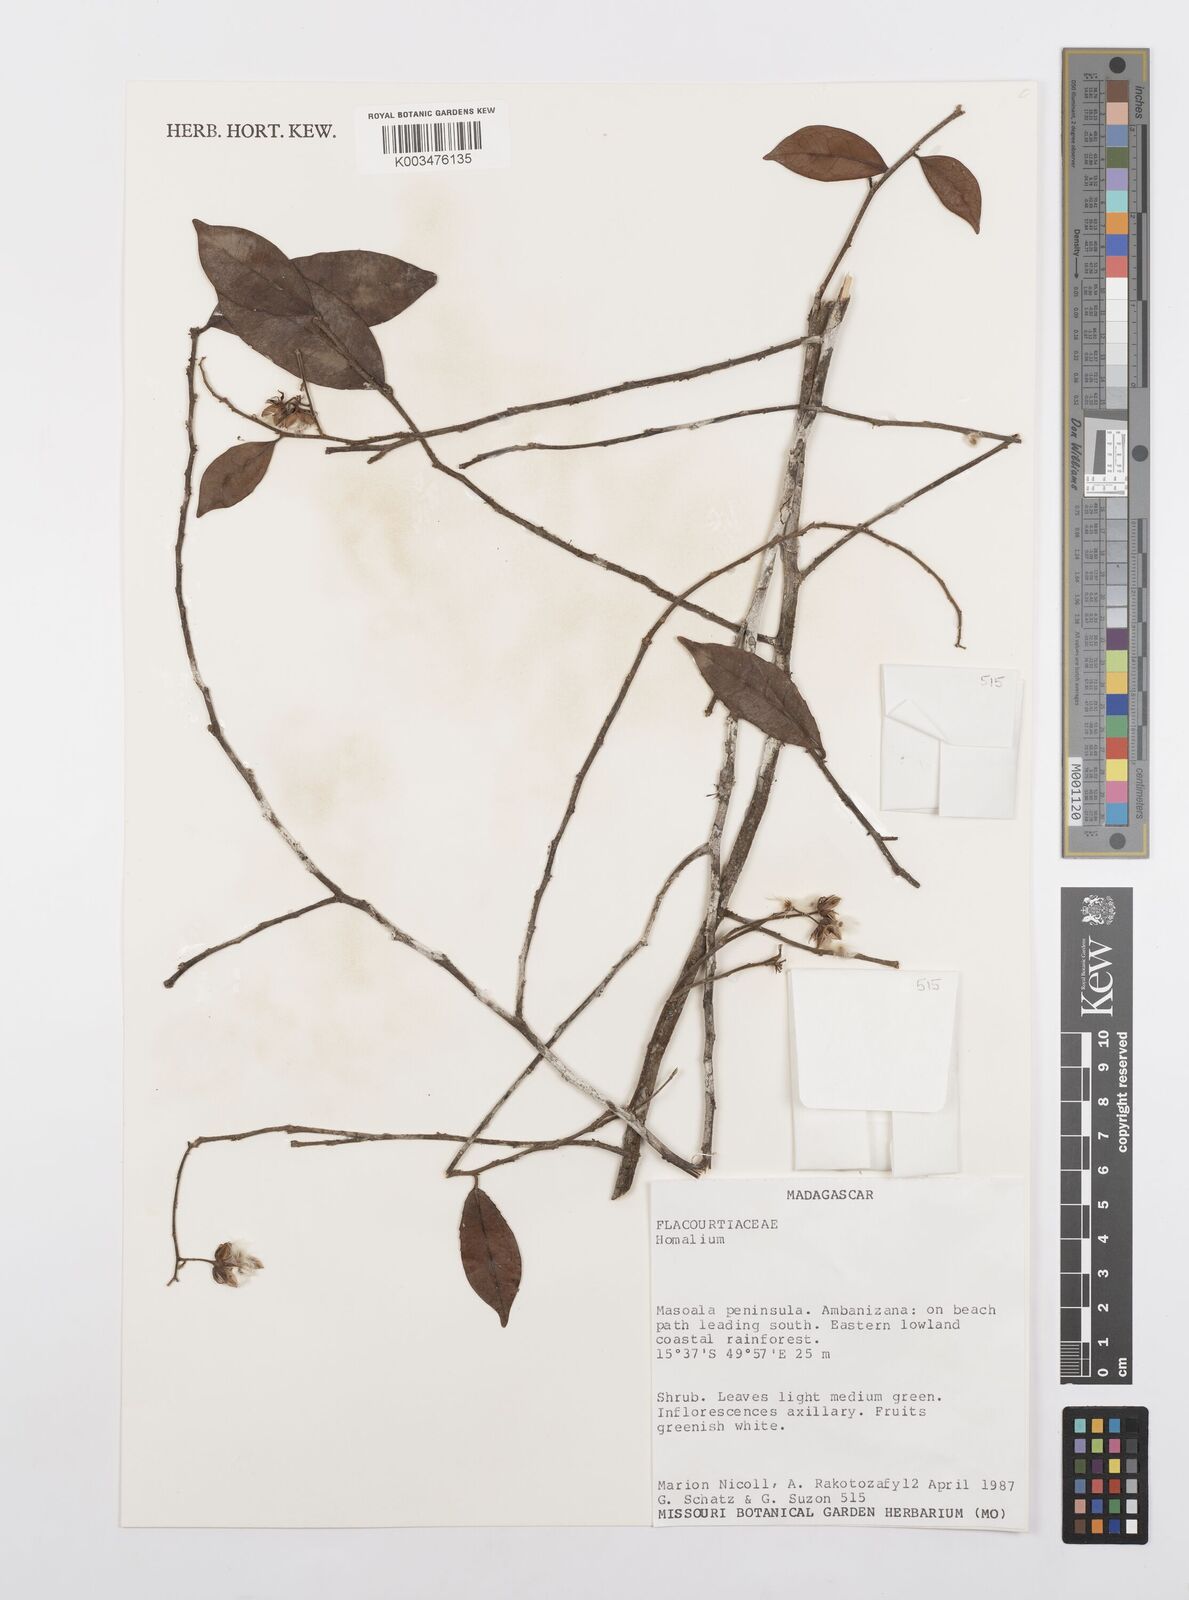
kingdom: Plantae
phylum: Tracheophyta
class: Magnoliopsida
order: Malpighiales
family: Salicaceae
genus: Homalium
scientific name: Homalium
